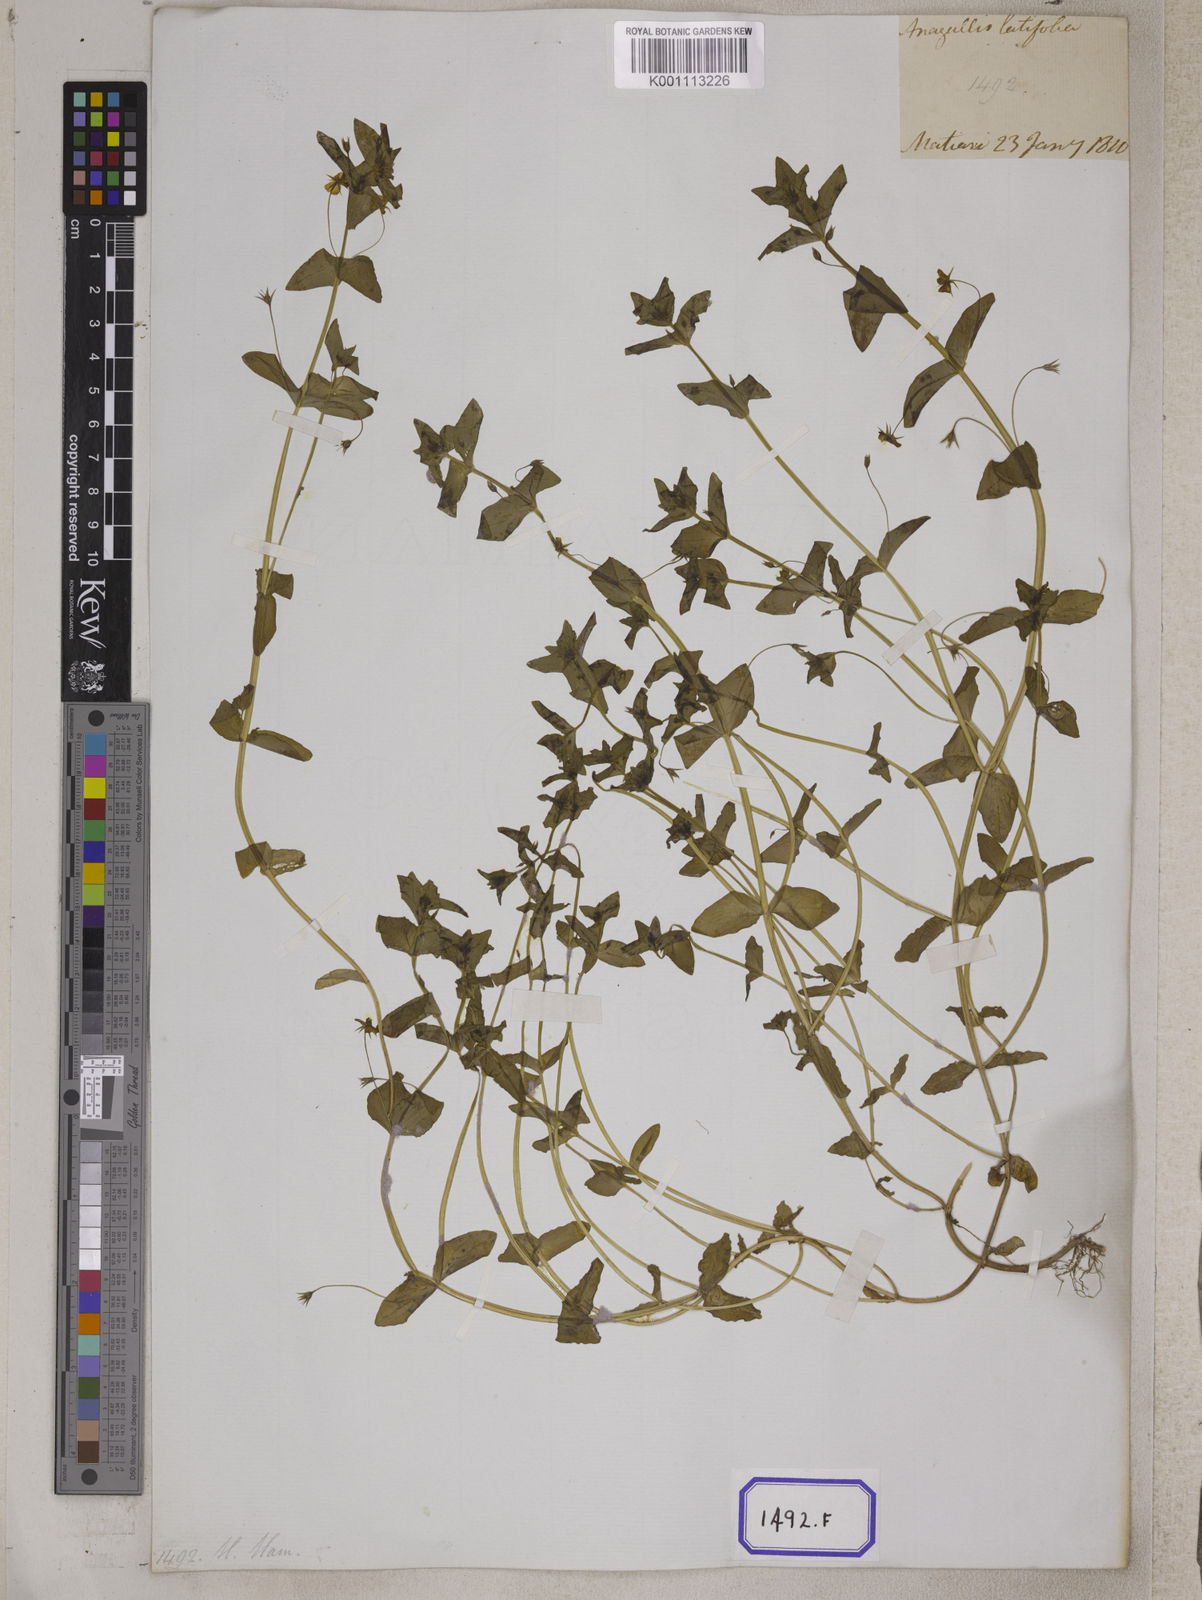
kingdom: Plantae
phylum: Tracheophyta
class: Magnoliopsida
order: Ericales
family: Primulaceae
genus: Lysimachia
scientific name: Lysimachia arvensis
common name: Scarlet pimpernel
